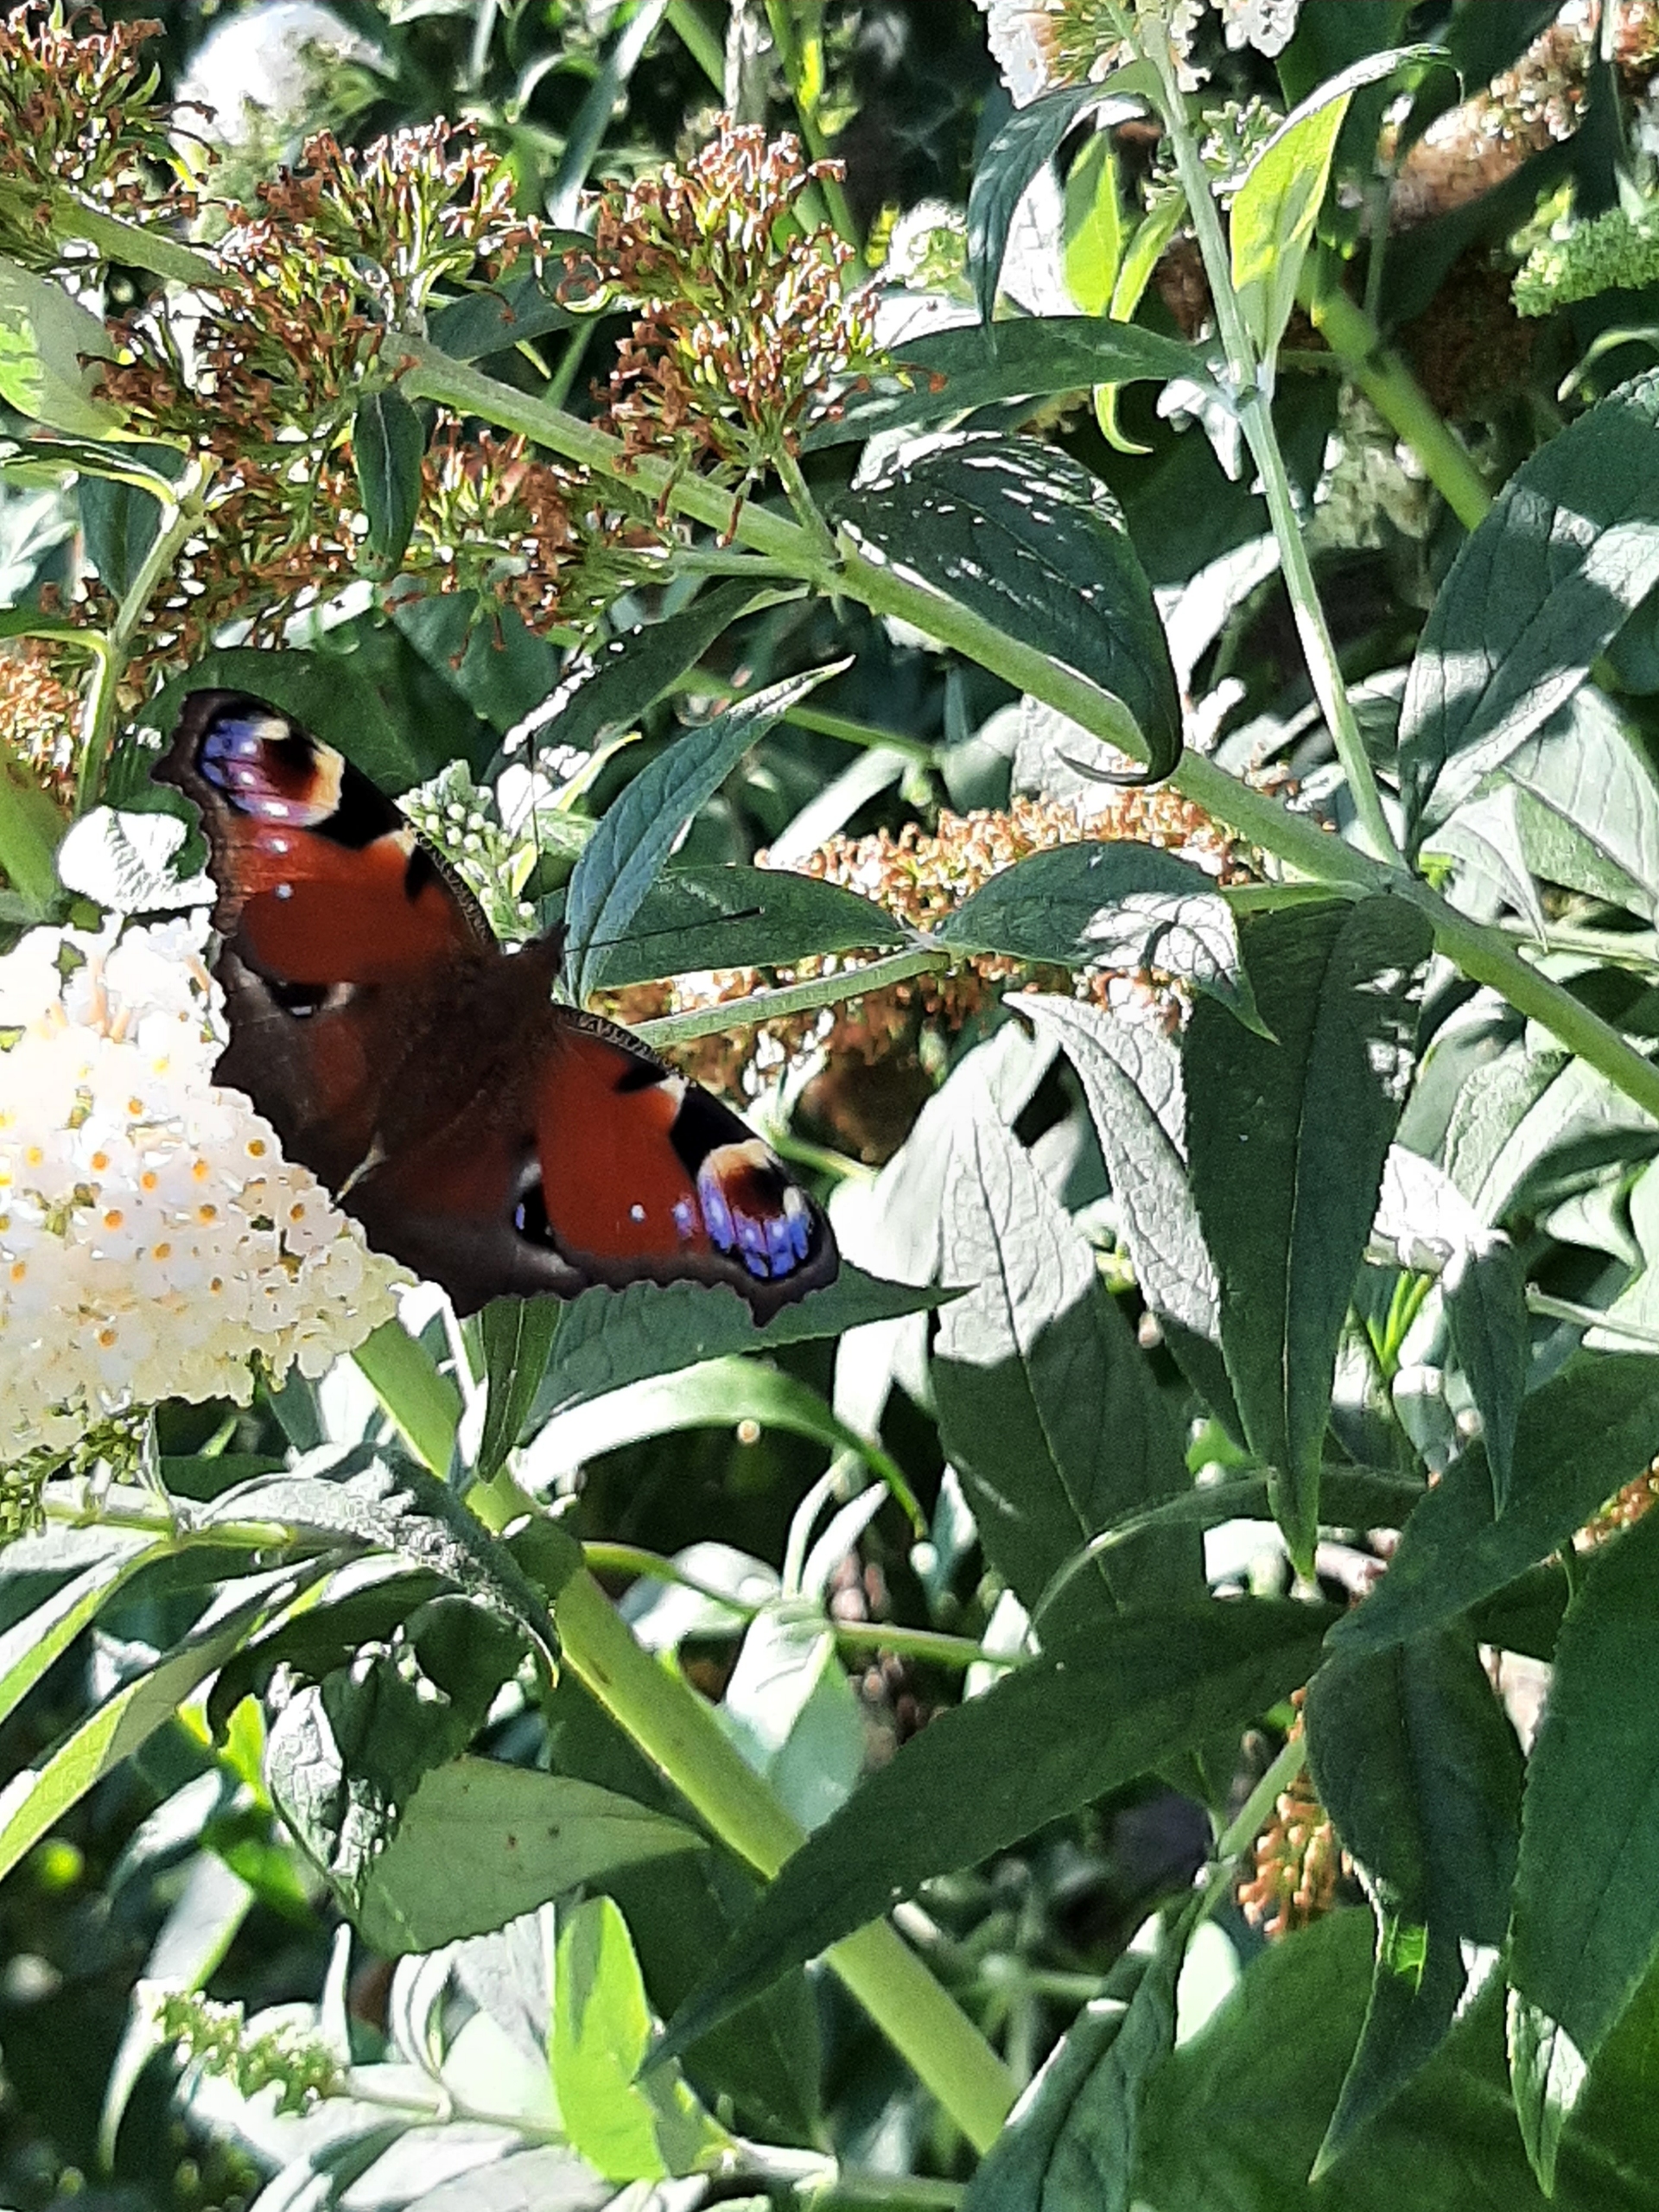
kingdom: Animalia
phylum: Arthropoda
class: Insecta
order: Lepidoptera
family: Nymphalidae
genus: Aglais
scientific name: Aglais io
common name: Dagpåfugleøje
